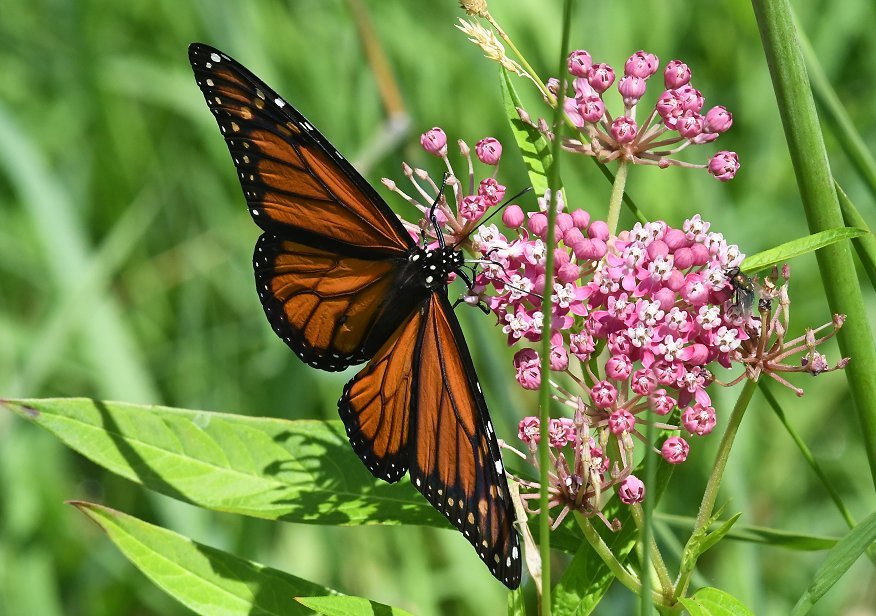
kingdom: Animalia
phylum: Arthropoda
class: Insecta
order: Lepidoptera
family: Nymphalidae
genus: Danaus
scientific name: Danaus plexippus
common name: Monarch
